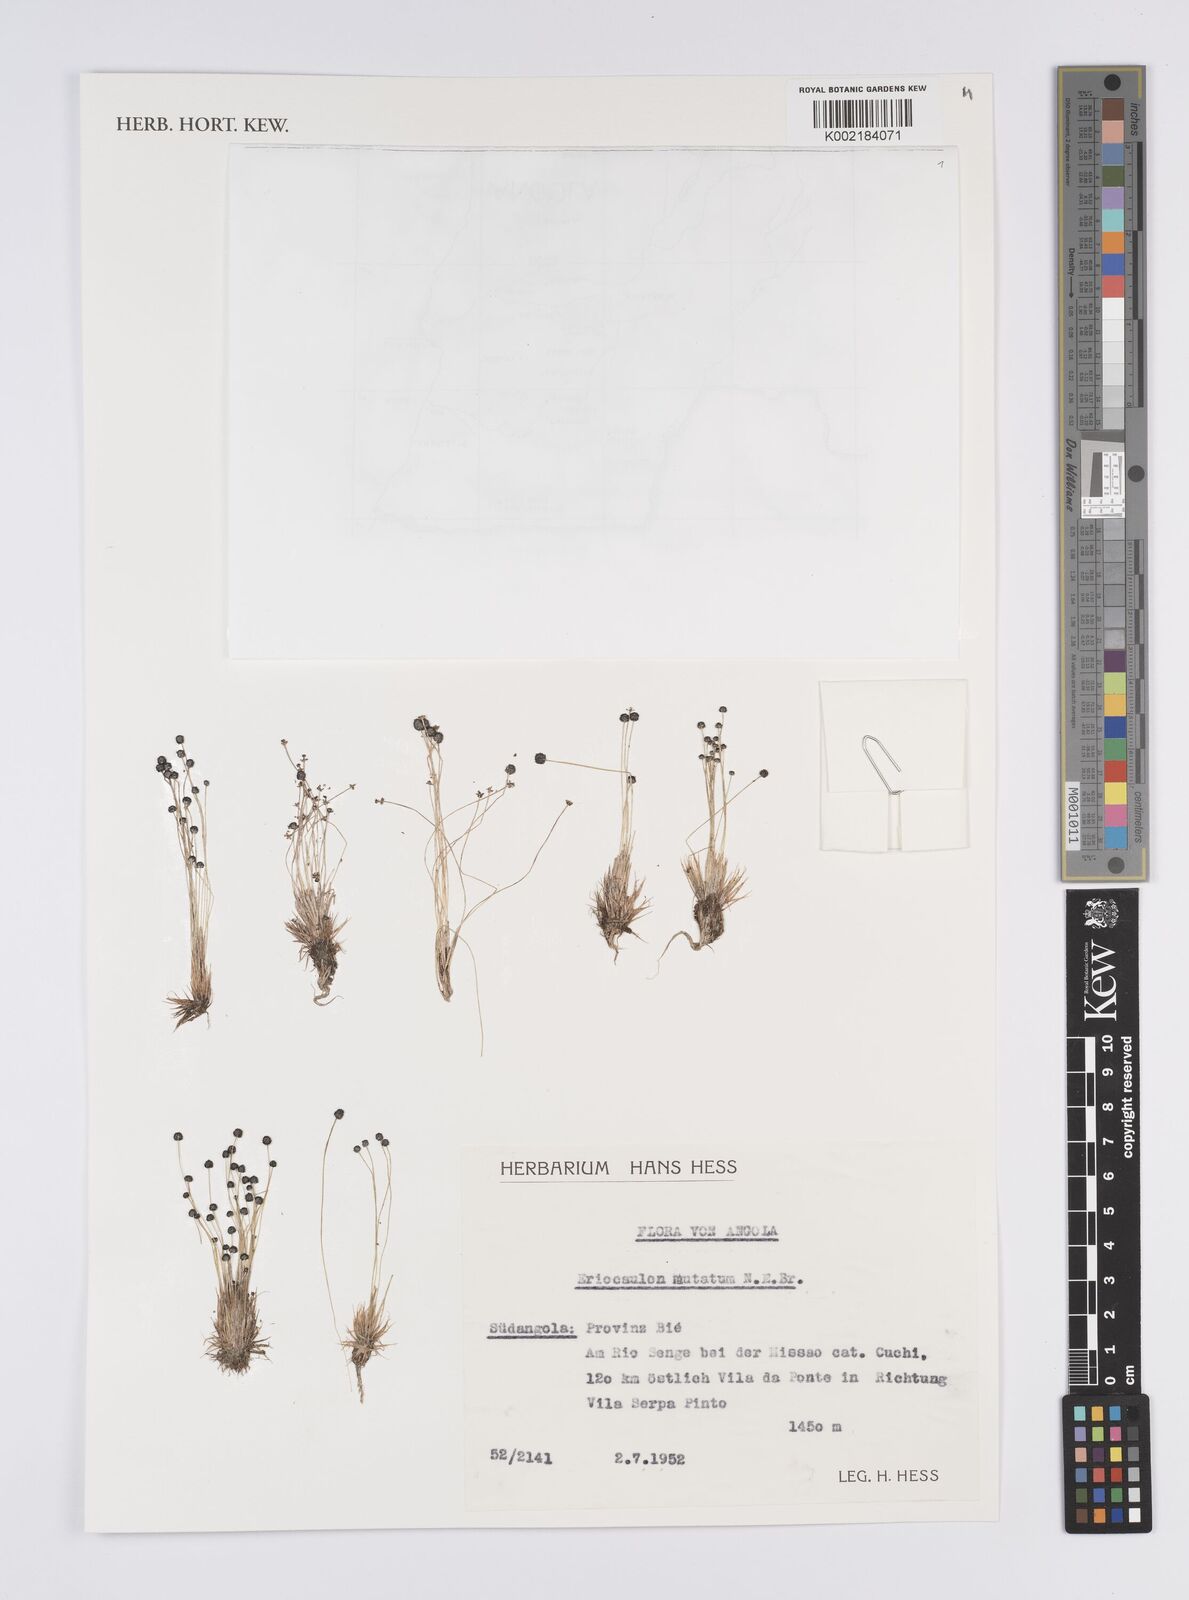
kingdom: Plantae
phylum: Tracheophyta
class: Liliopsida
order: Poales
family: Eriocaulaceae
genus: Eriocaulon
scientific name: Eriocaulon mutatum
